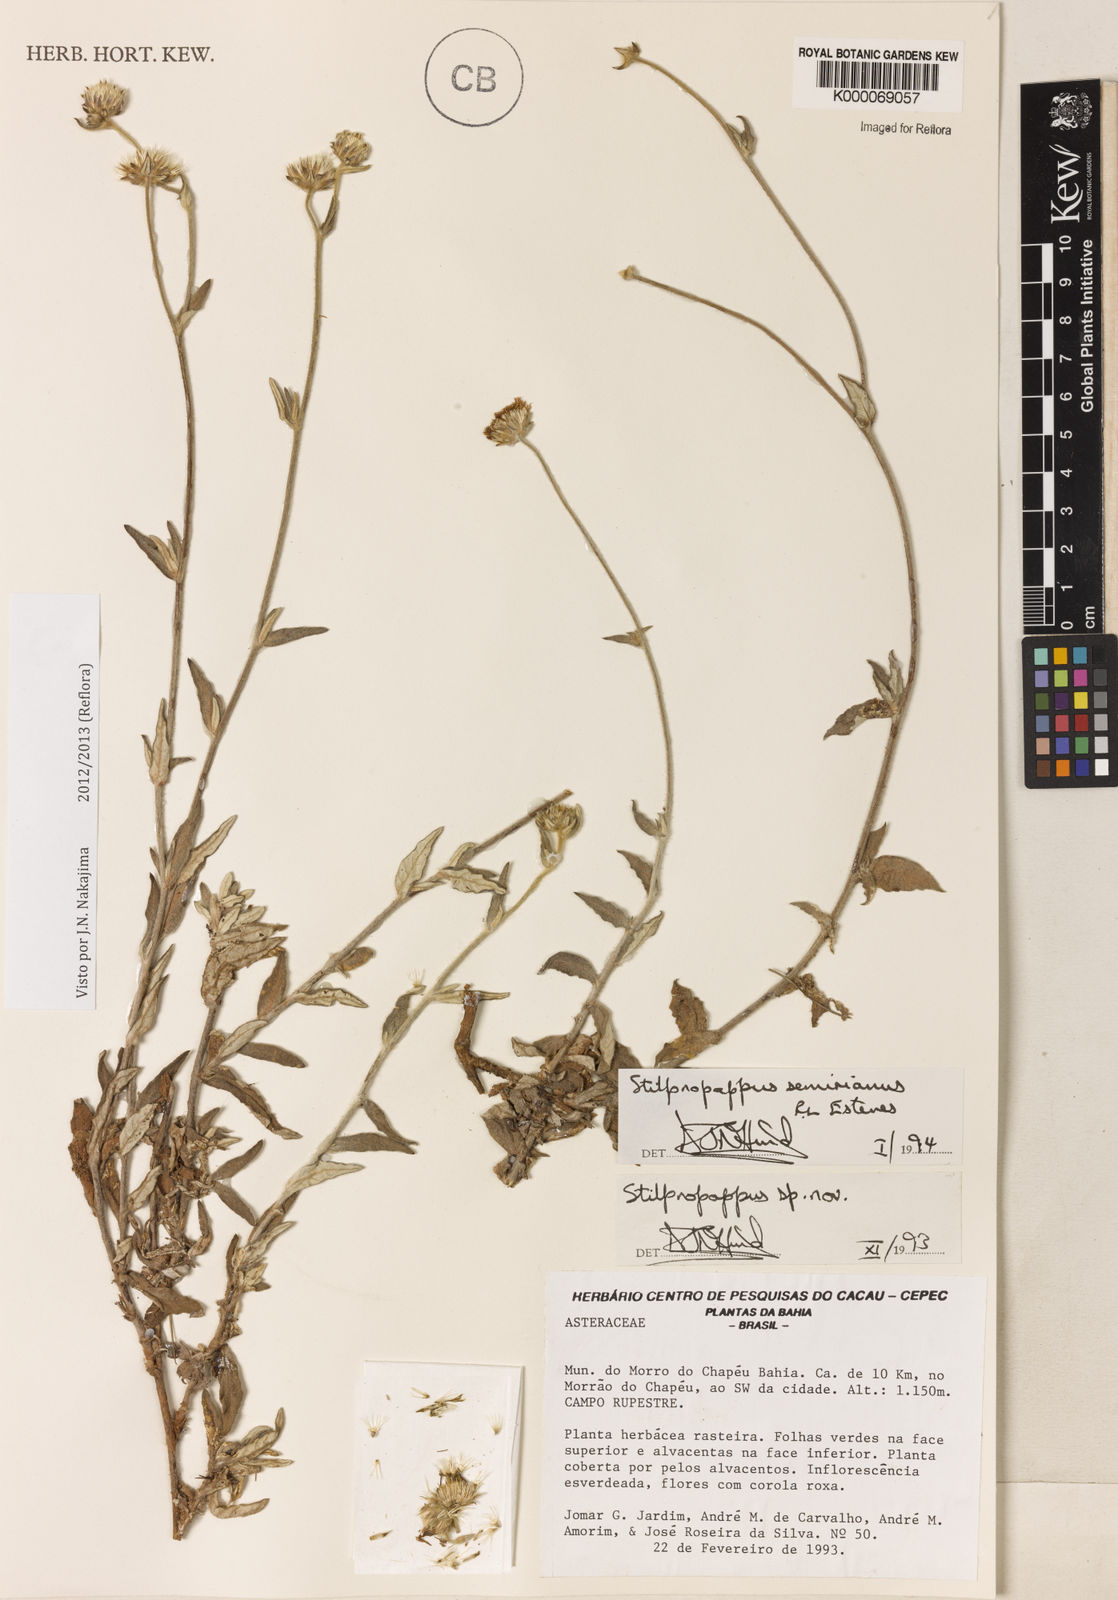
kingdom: Plantae
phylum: Tracheophyta
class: Magnoliopsida
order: Asterales
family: Asteraceae
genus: Stilpnopappus
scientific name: Stilpnopappus semirianus
